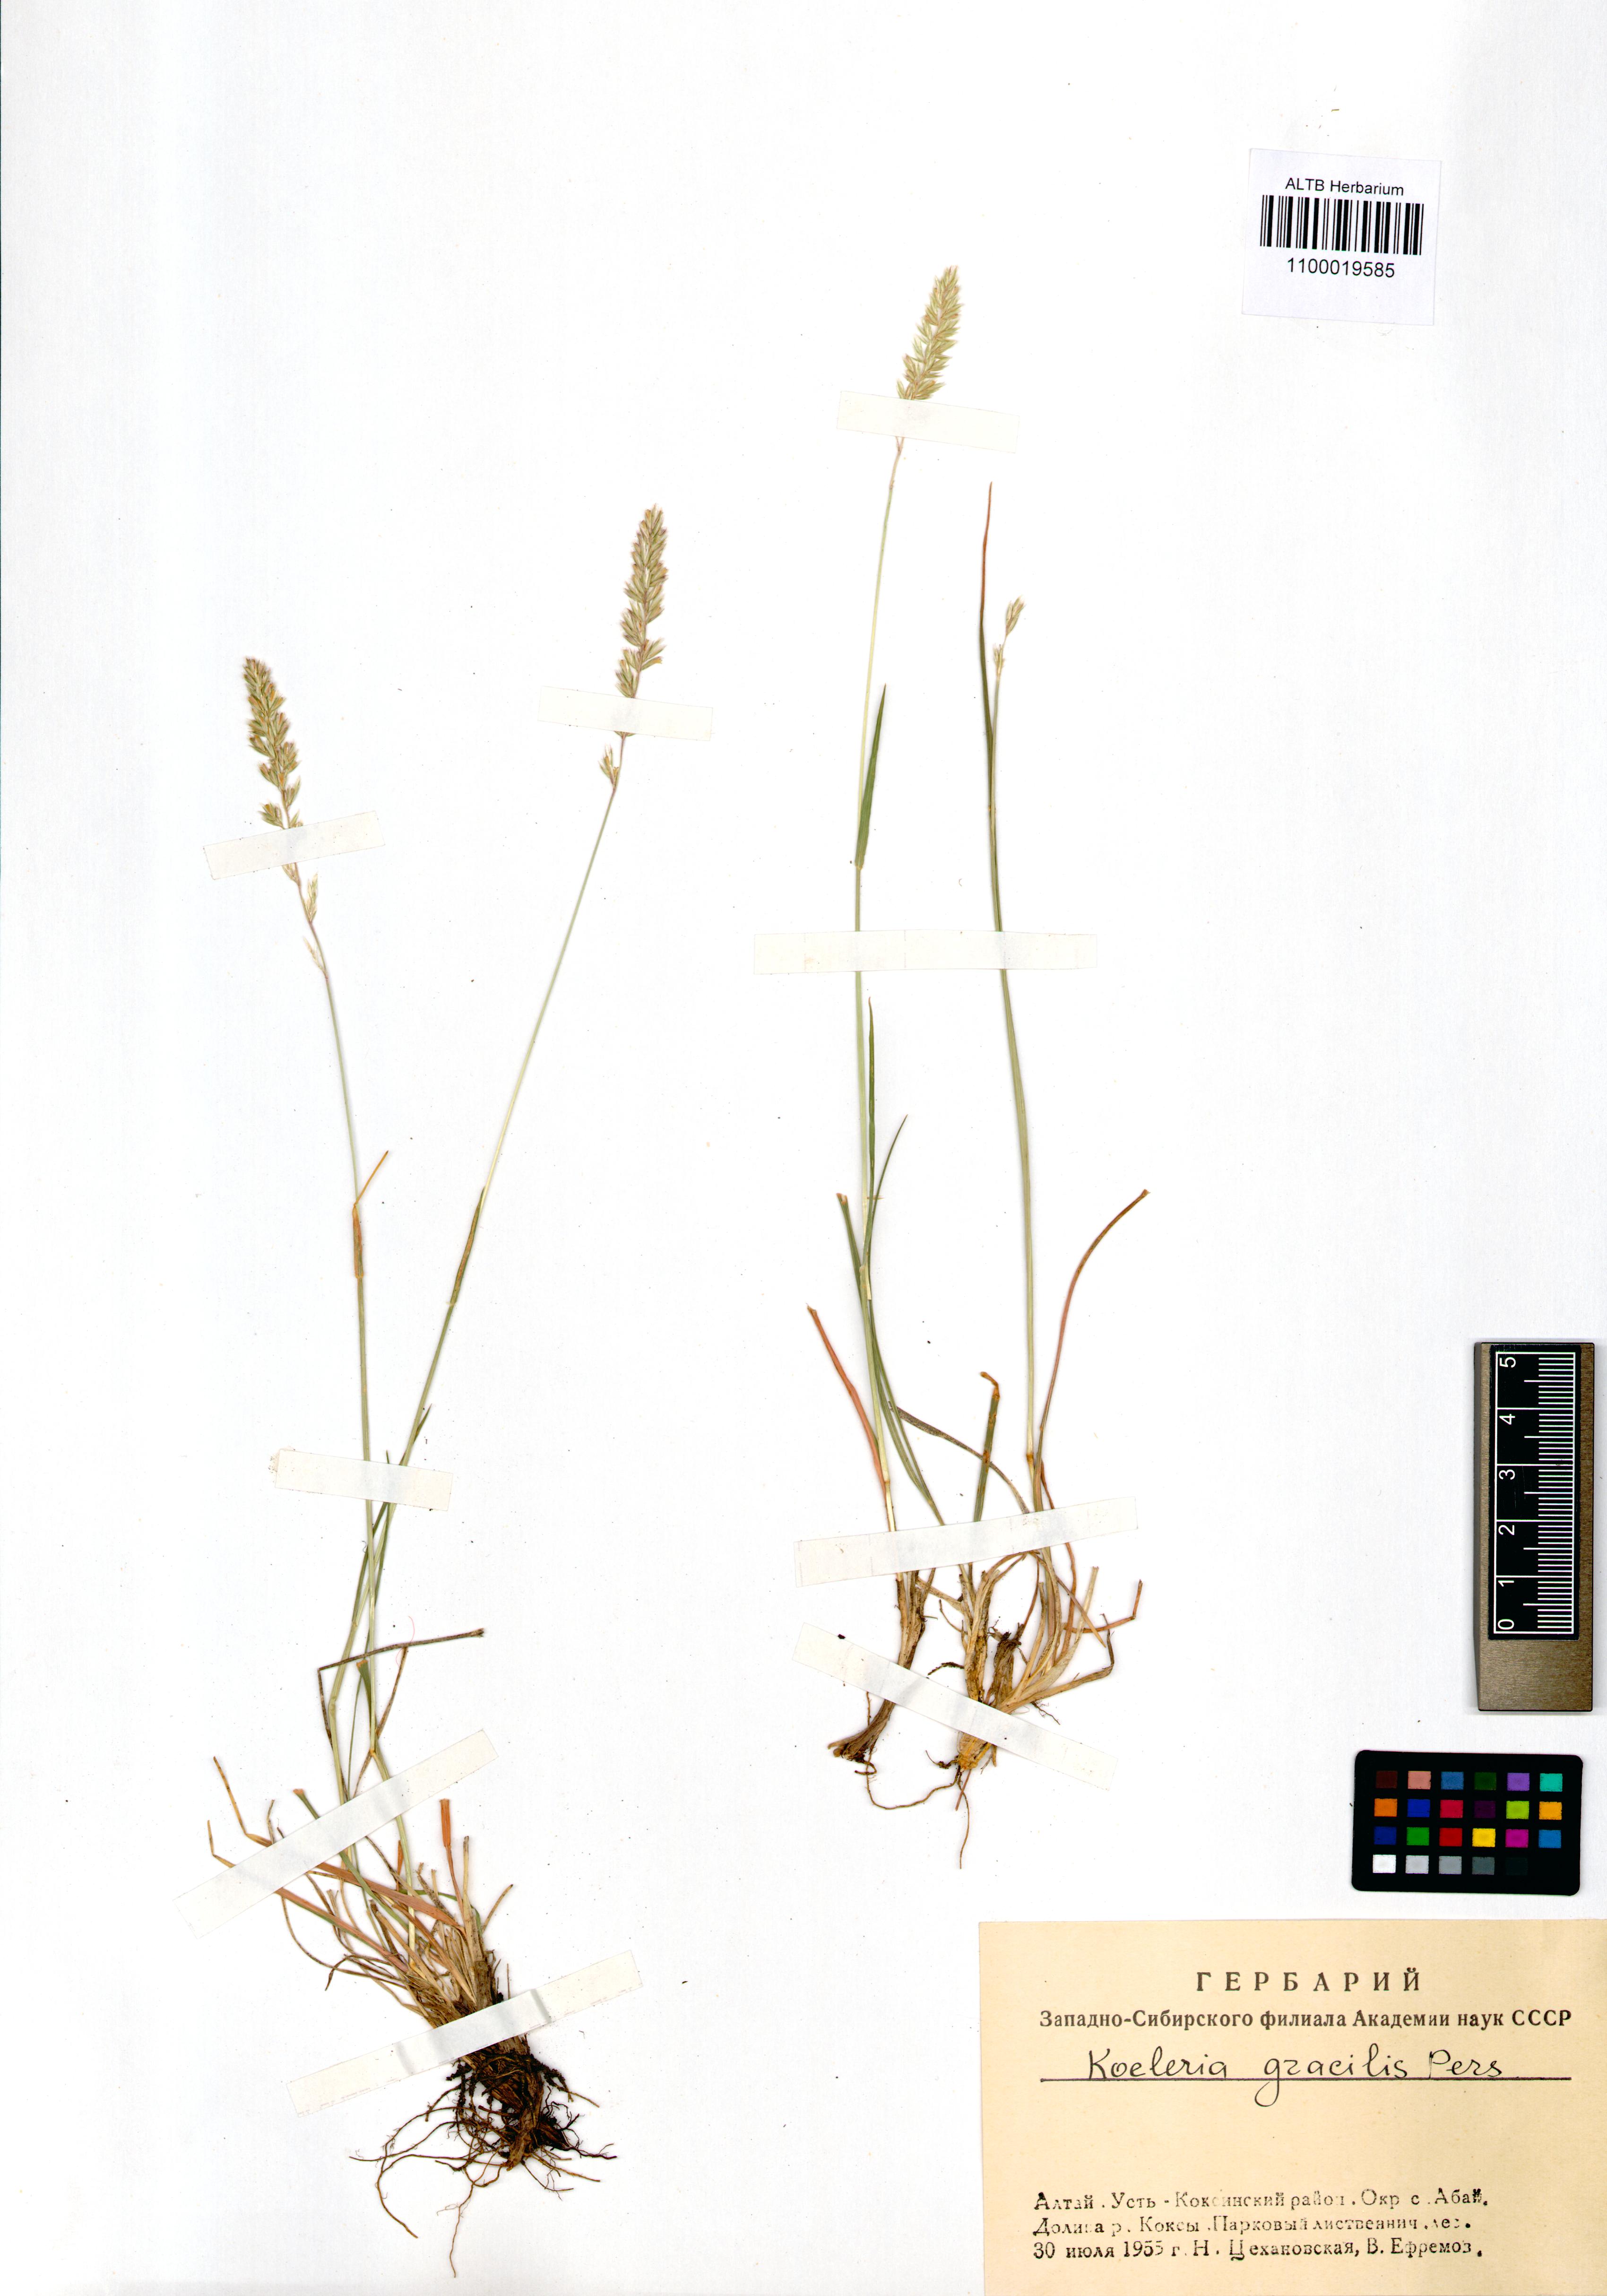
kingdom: Plantae
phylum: Tracheophyta
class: Liliopsida
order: Poales
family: Poaceae
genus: Koeleria
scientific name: Koeleria macrantha
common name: Crested hair-grass
